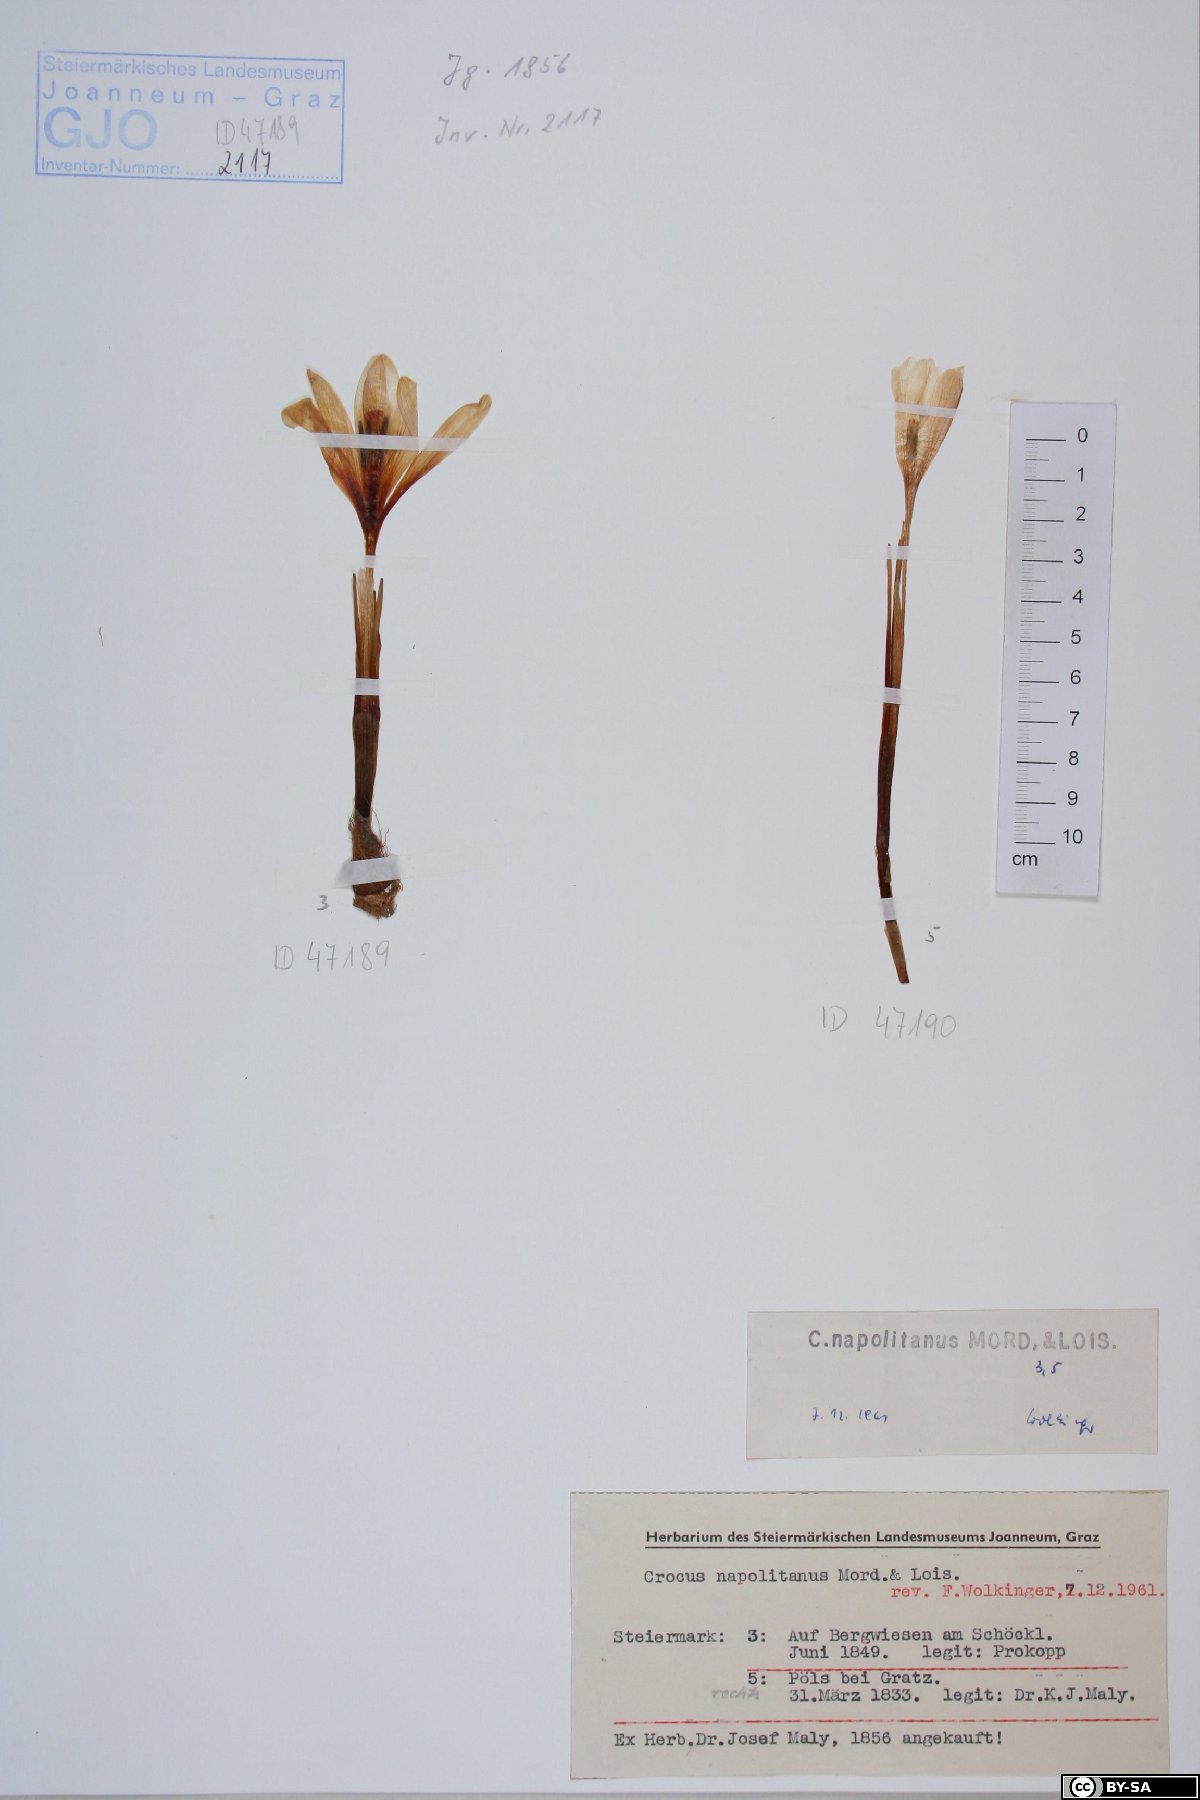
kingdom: Plantae
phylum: Tracheophyta
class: Liliopsida
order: Asparagales
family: Iridaceae
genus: Crocus
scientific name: Crocus vernus
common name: Spring crocus
